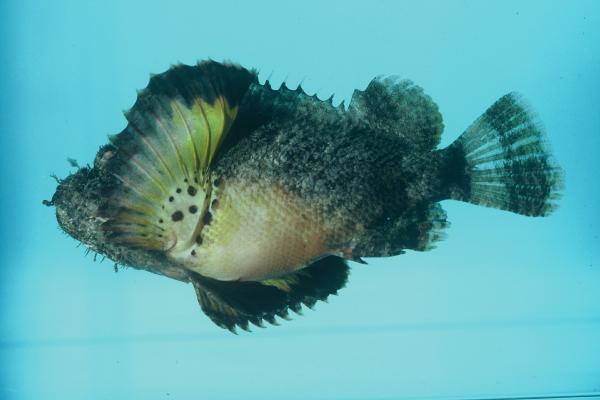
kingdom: Animalia
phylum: Chordata
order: Scorpaeniformes
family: Scorpaenidae
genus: Scorpaenopsis
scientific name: Scorpaenopsis diabolus
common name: False stonefish
